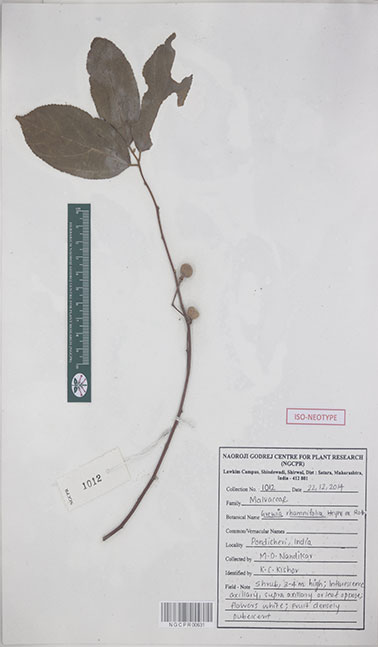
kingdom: Plantae
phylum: Tracheophyta
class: Magnoliopsida
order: Malvales
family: Malvaceae
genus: Grewia
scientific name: Grewia oppositifolia
